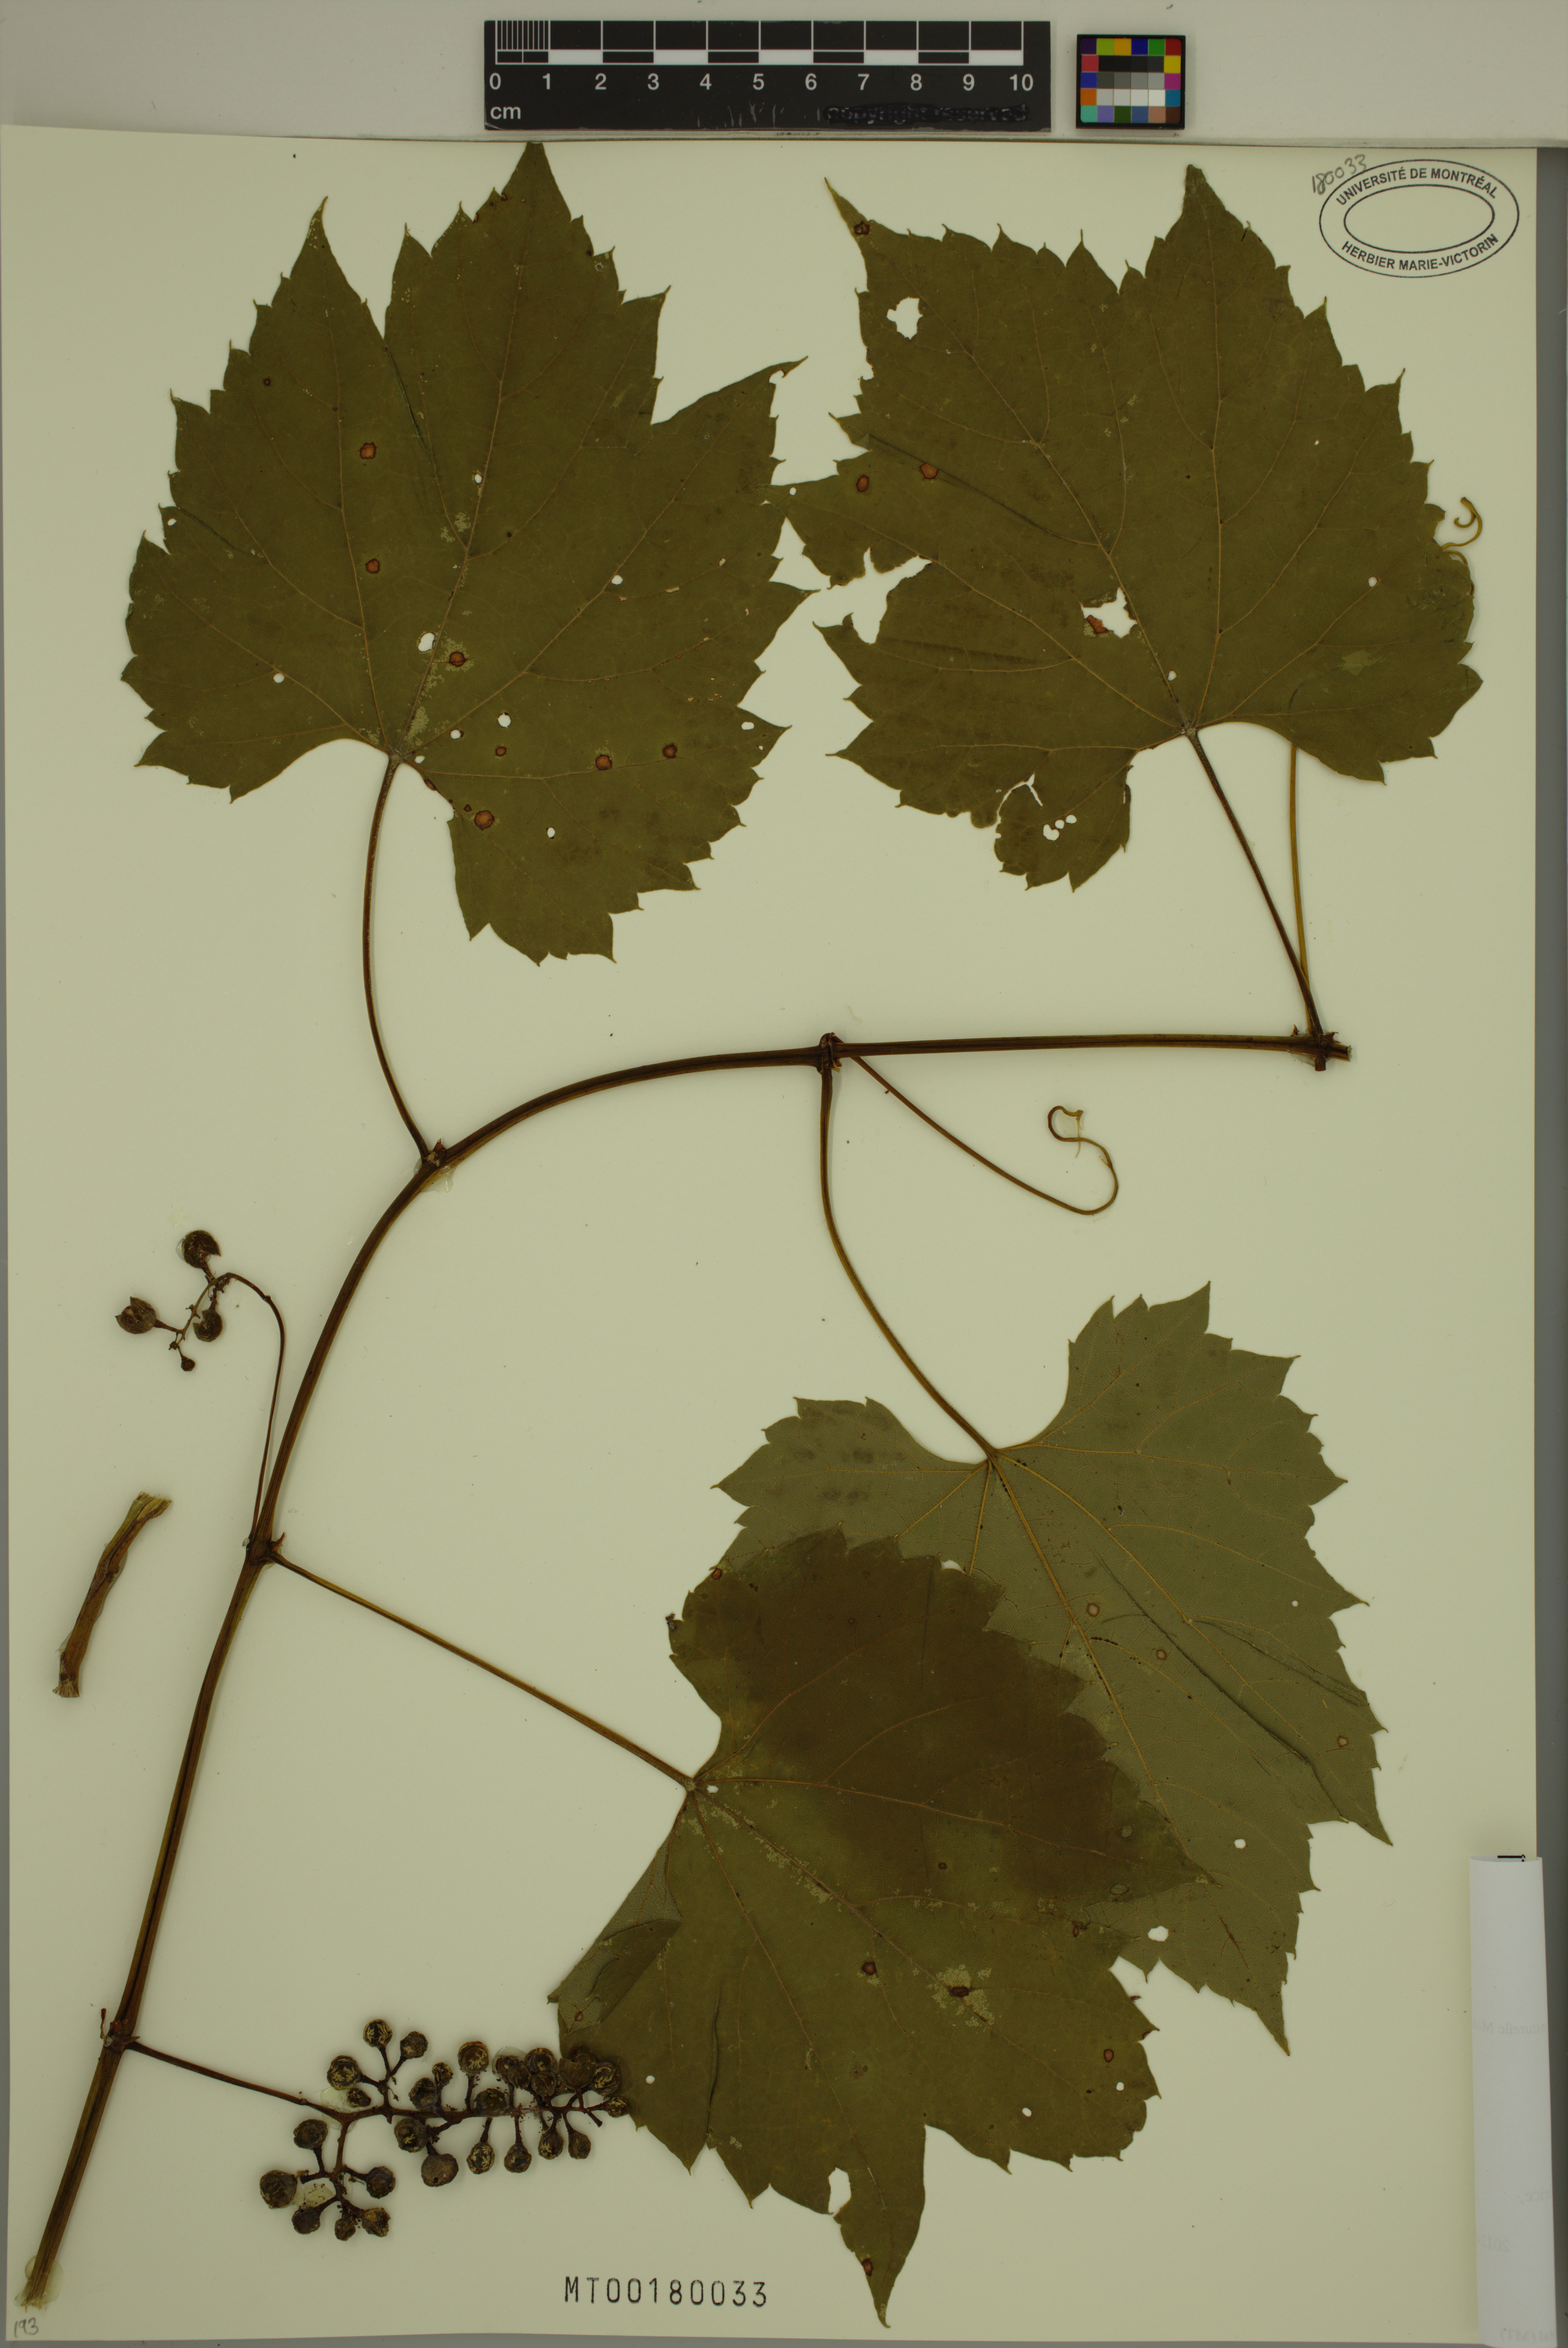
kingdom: Plantae
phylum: Tracheophyta
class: Magnoliopsida
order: Vitales
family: Vitaceae
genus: Vitis
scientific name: Vitis riparia
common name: Frost grape
